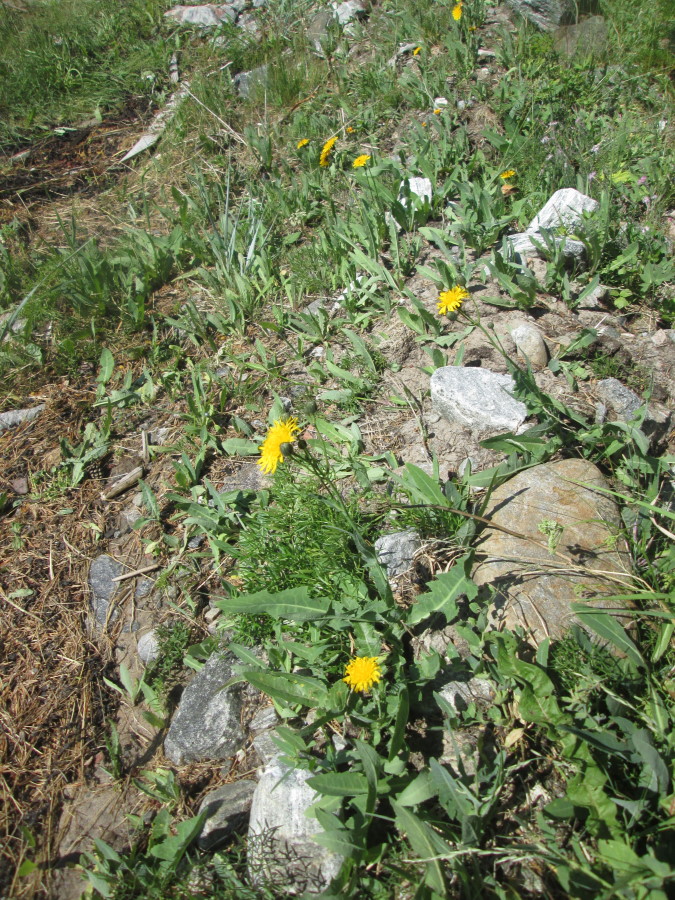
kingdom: Plantae
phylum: Tracheophyta
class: Magnoliopsida
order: Asterales
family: Asteraceae
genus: Sonchus
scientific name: Sonchus arvensis
